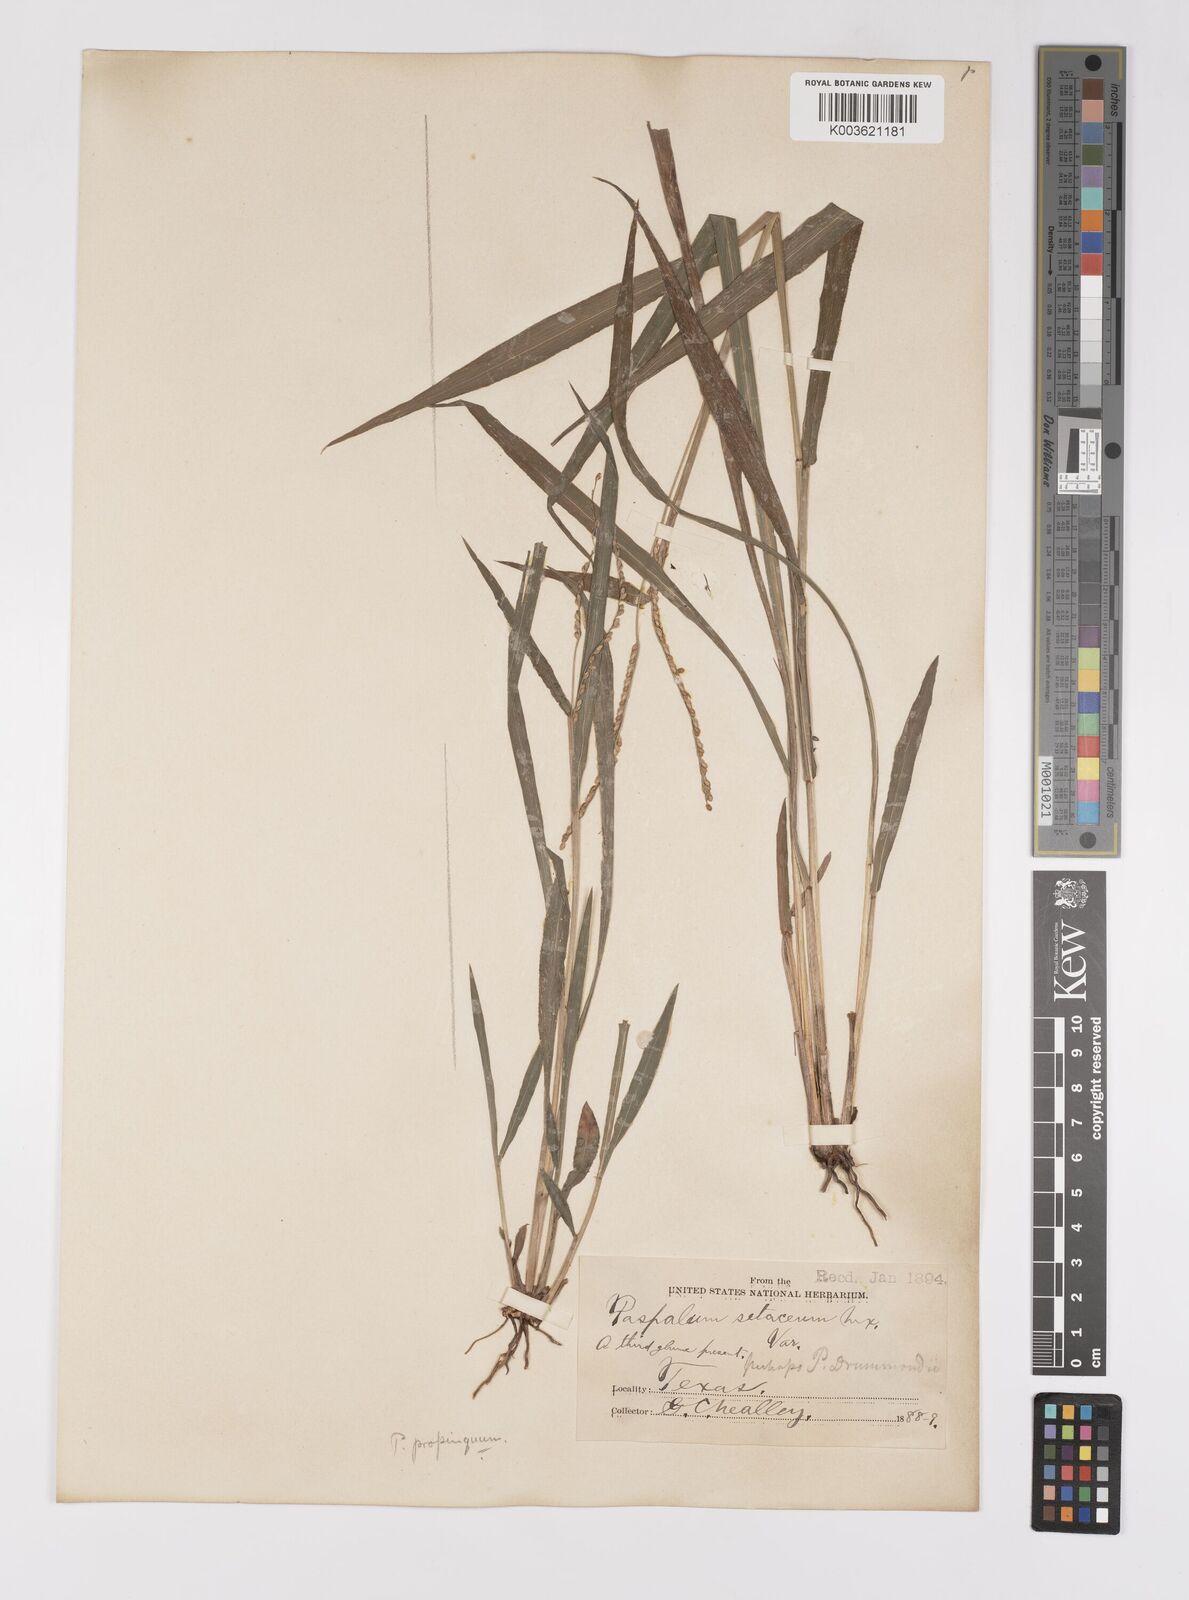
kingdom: Plantae
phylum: Tracheophyta
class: Liliopsida
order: Poales
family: Poaceae
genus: Paspalum
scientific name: Paspalum setaceum
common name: Slender paspalum
